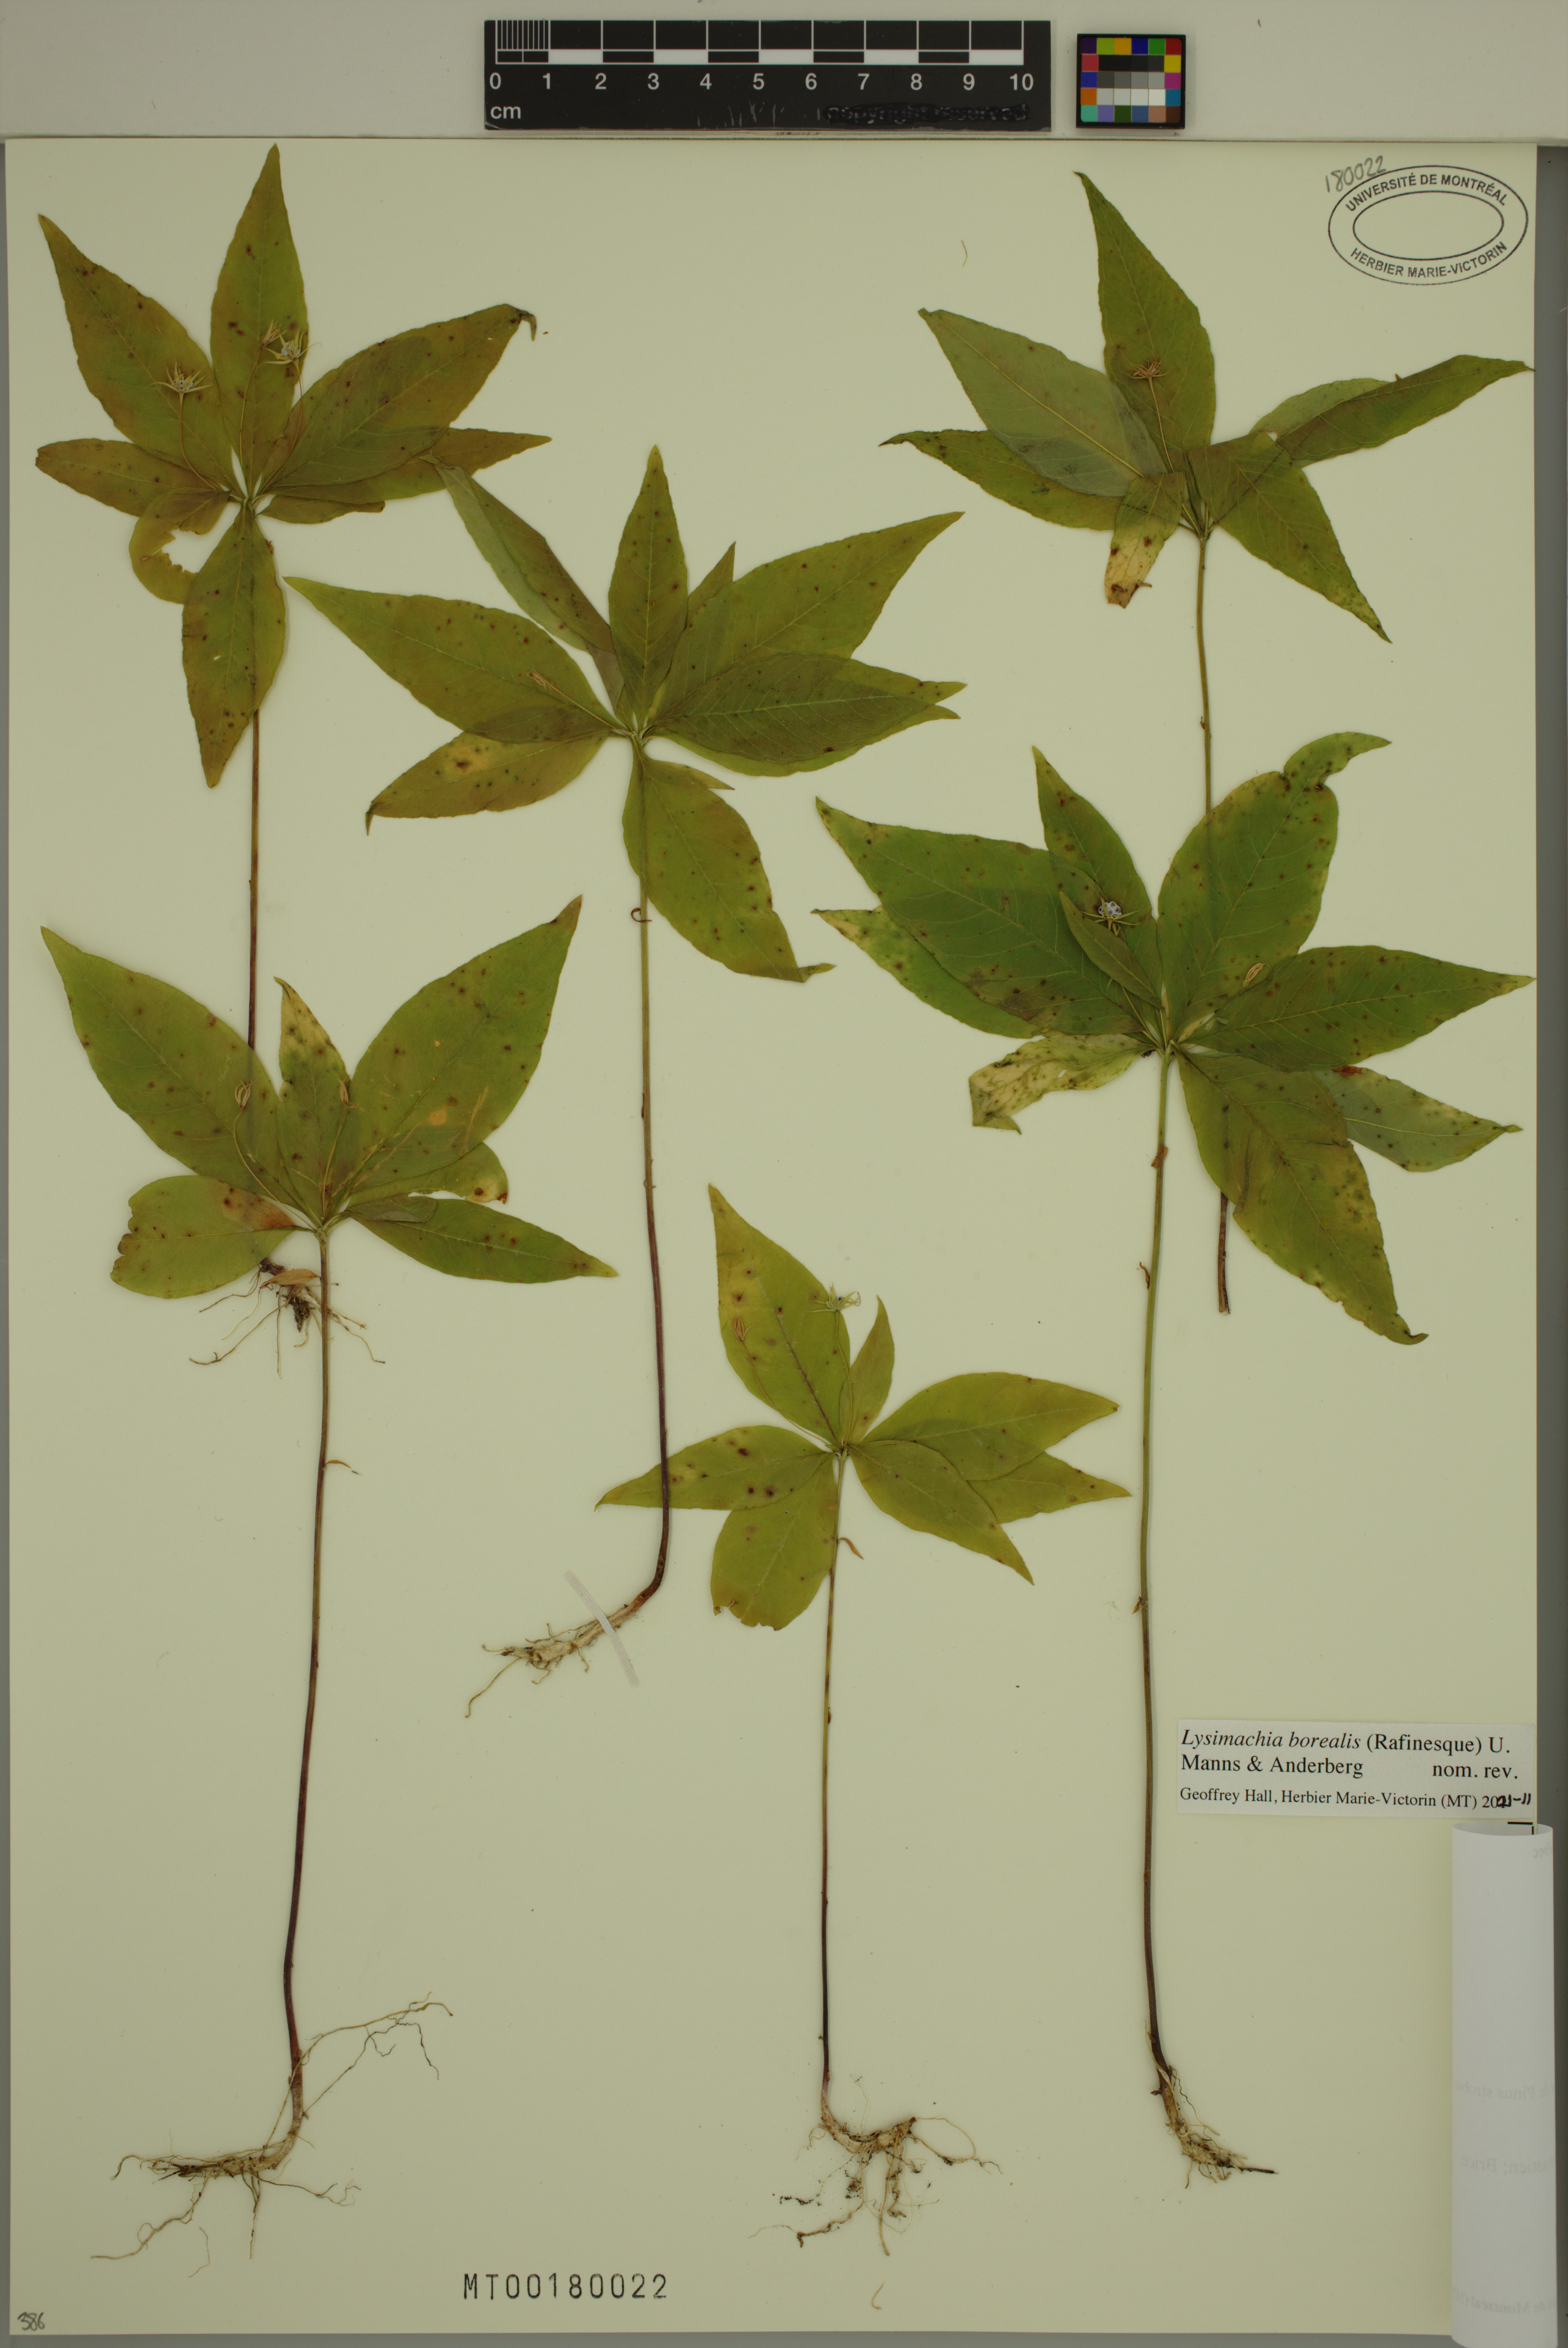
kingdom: Plantae
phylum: Tracheophyta
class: Magnoliopsida
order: Ericales
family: Primulaceae
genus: Lysimachia
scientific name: Lysimachia borealis
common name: American starflower
